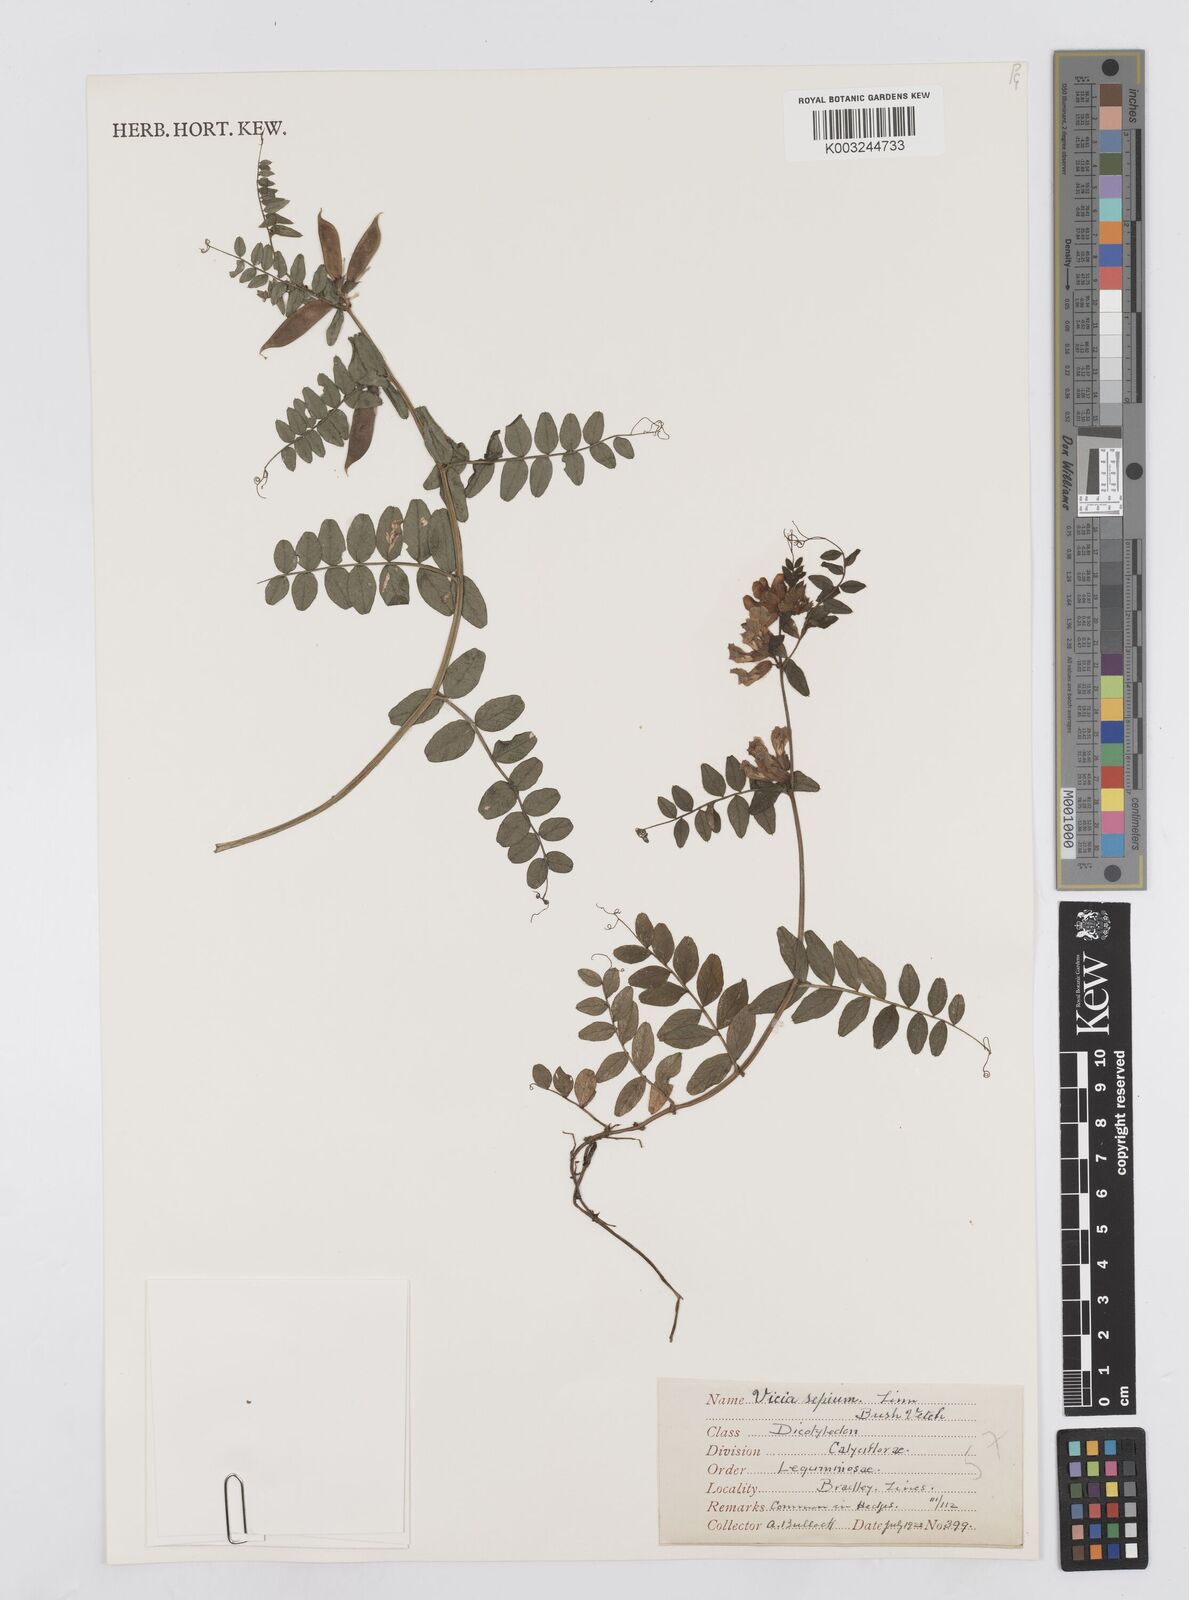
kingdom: Plantae
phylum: Tracheophyta
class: Magnoliopsida
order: Fabales
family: Fabaceae
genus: Vicia
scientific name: Vicia sepium
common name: Bush vetch
